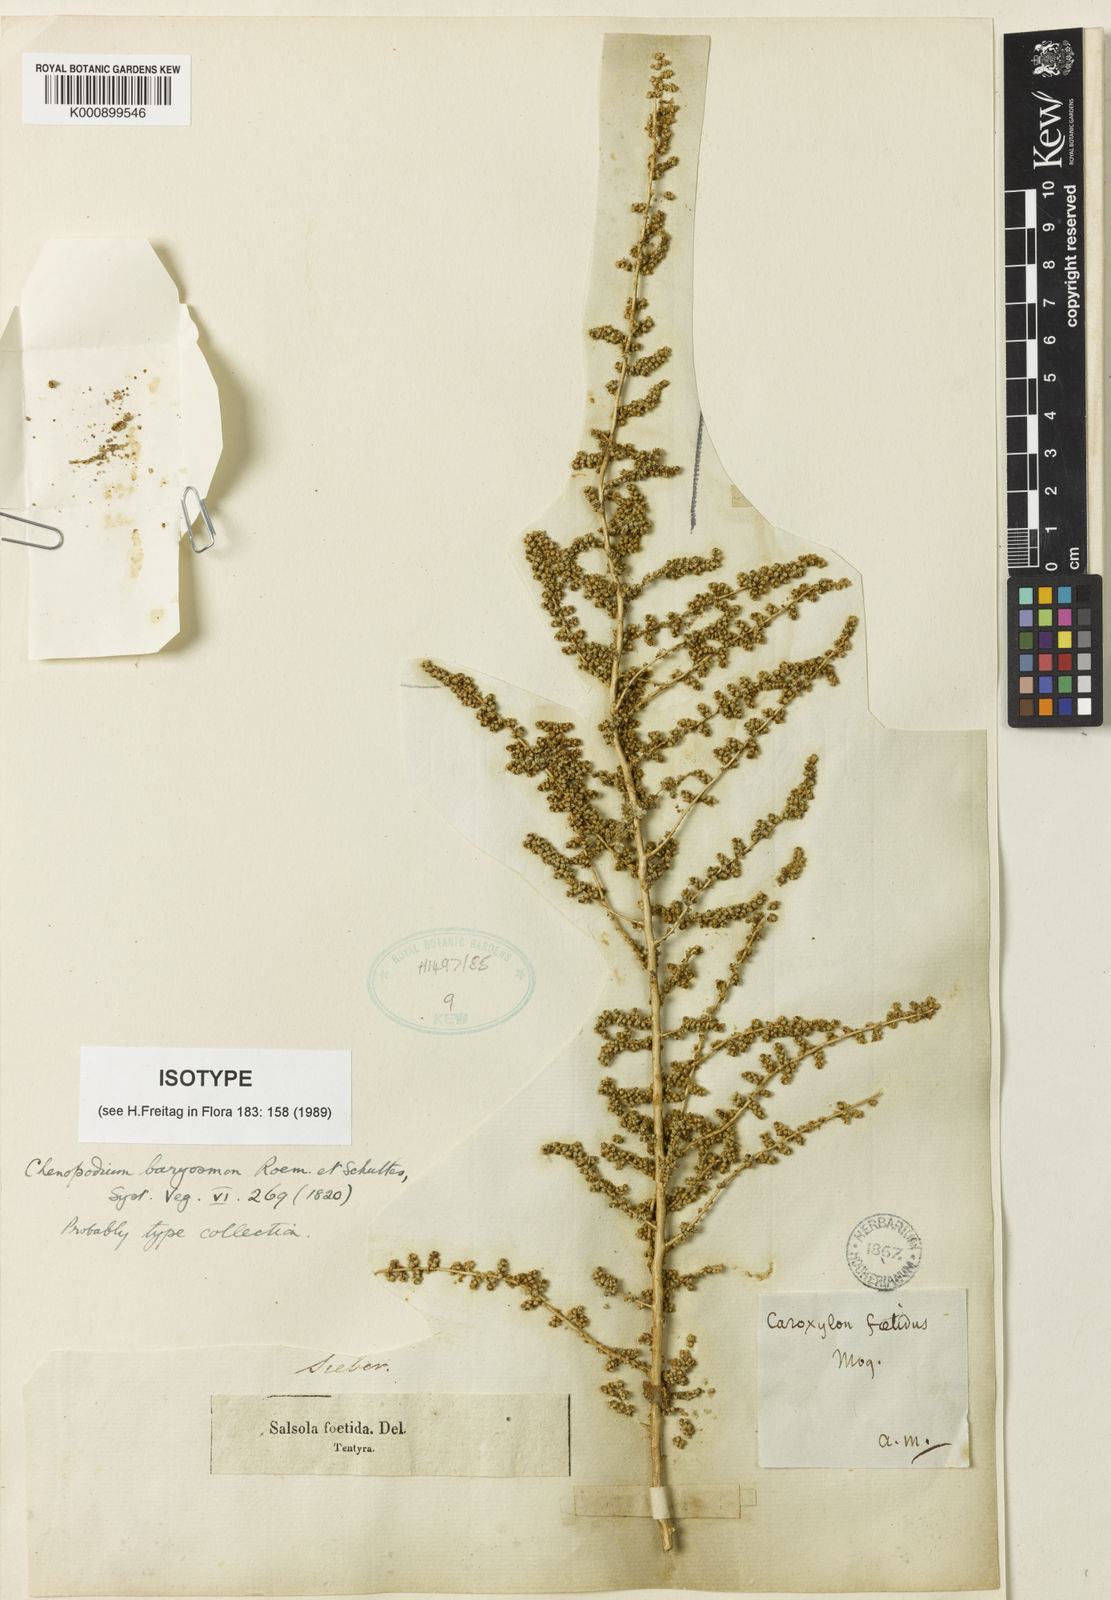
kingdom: Plantae
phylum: Tracheophyta
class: Magnoliopsida
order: Caryophyllales
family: Amaranthaceae
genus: Caroxylon
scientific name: Caroxylon imbricatum
